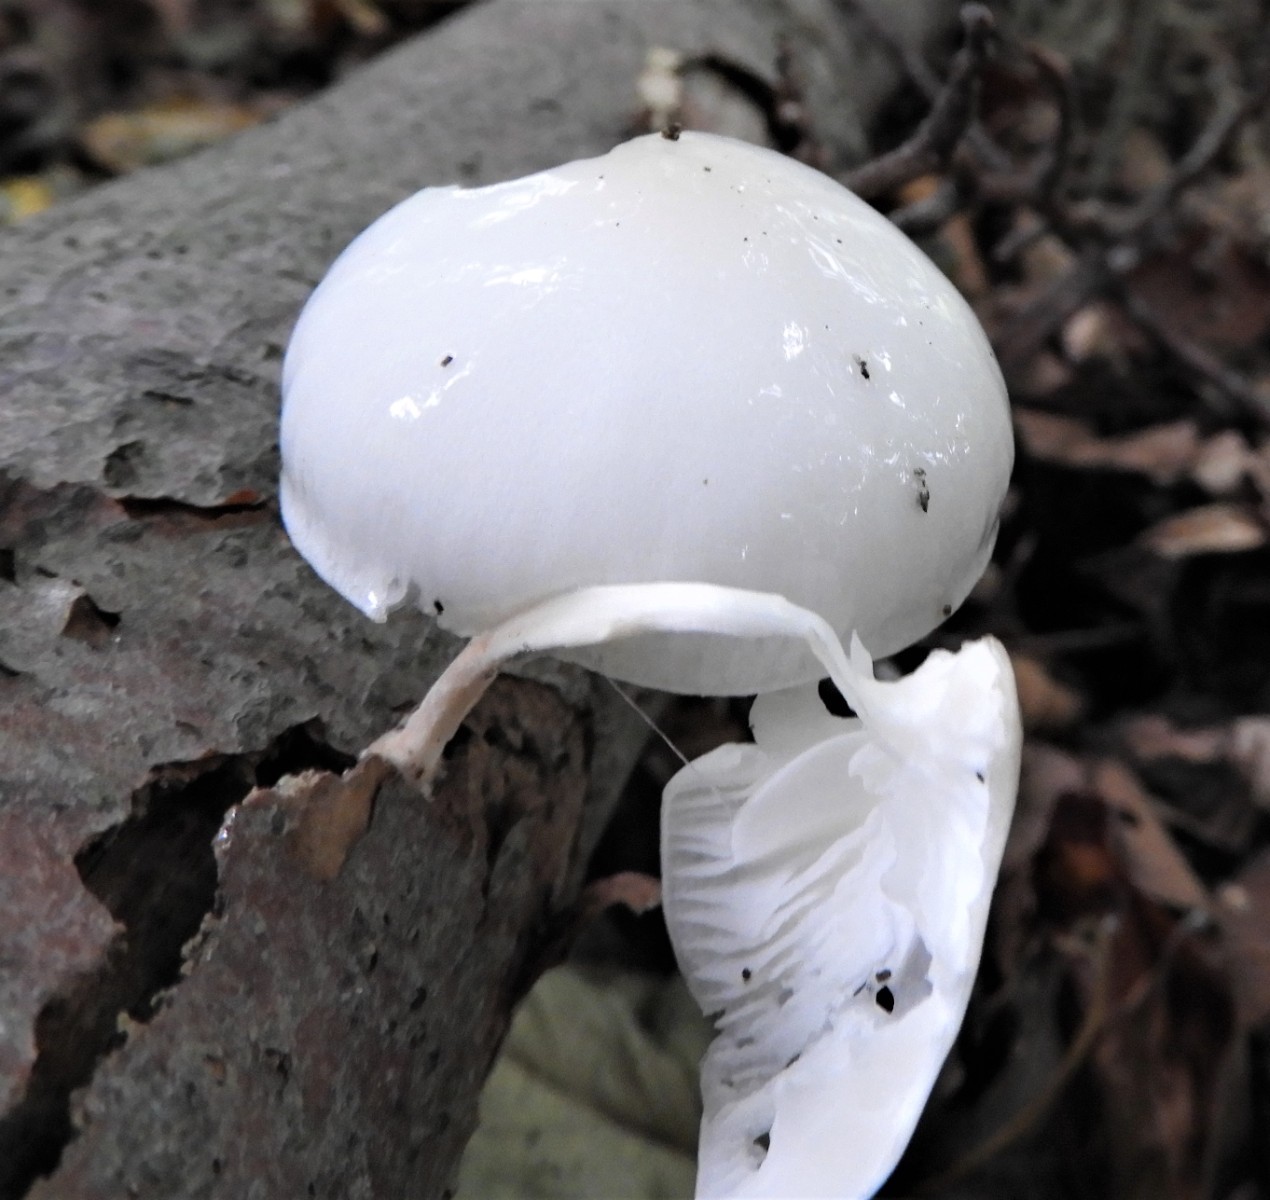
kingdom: Fungi
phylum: Basidiomycota
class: Agaricomycetes
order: Agaricales
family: Physalacriaceae
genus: Mucidula
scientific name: Mucidula mucida
